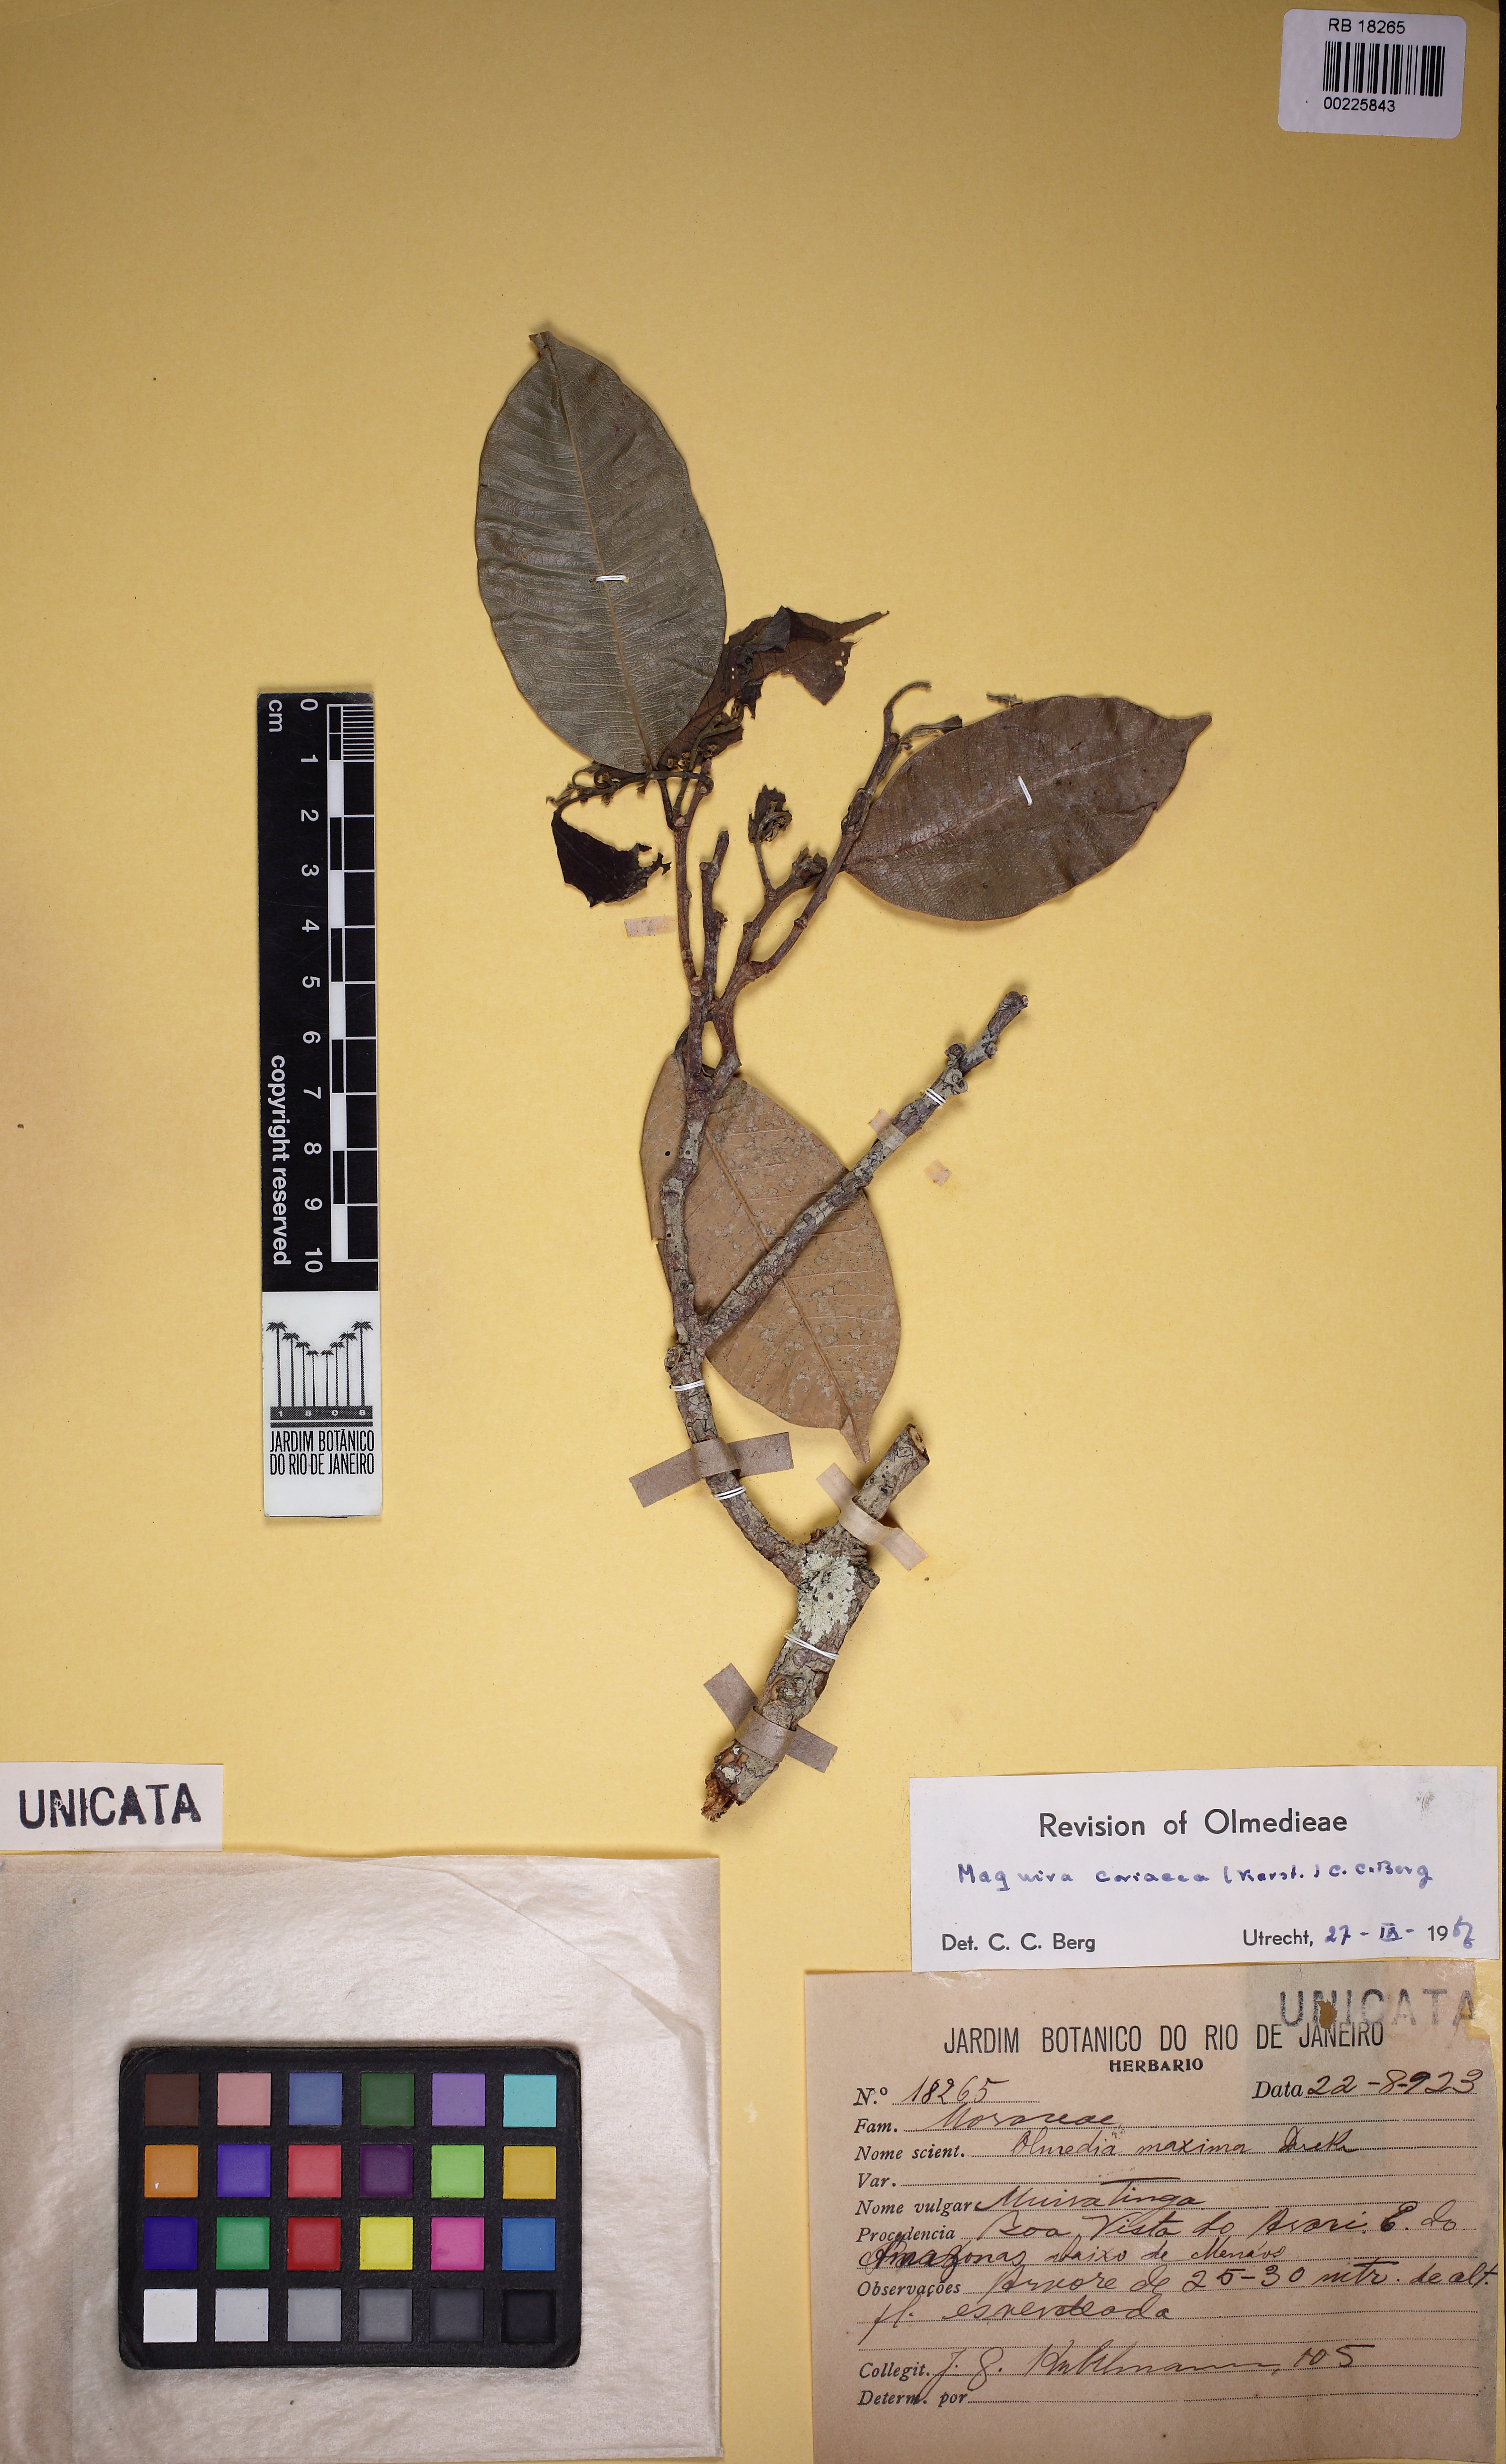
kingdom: Plantae
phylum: Tracheophyta
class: Magnoliopsida
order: Rosales
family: Moraceae
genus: Maquira
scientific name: Maquira coriacea
